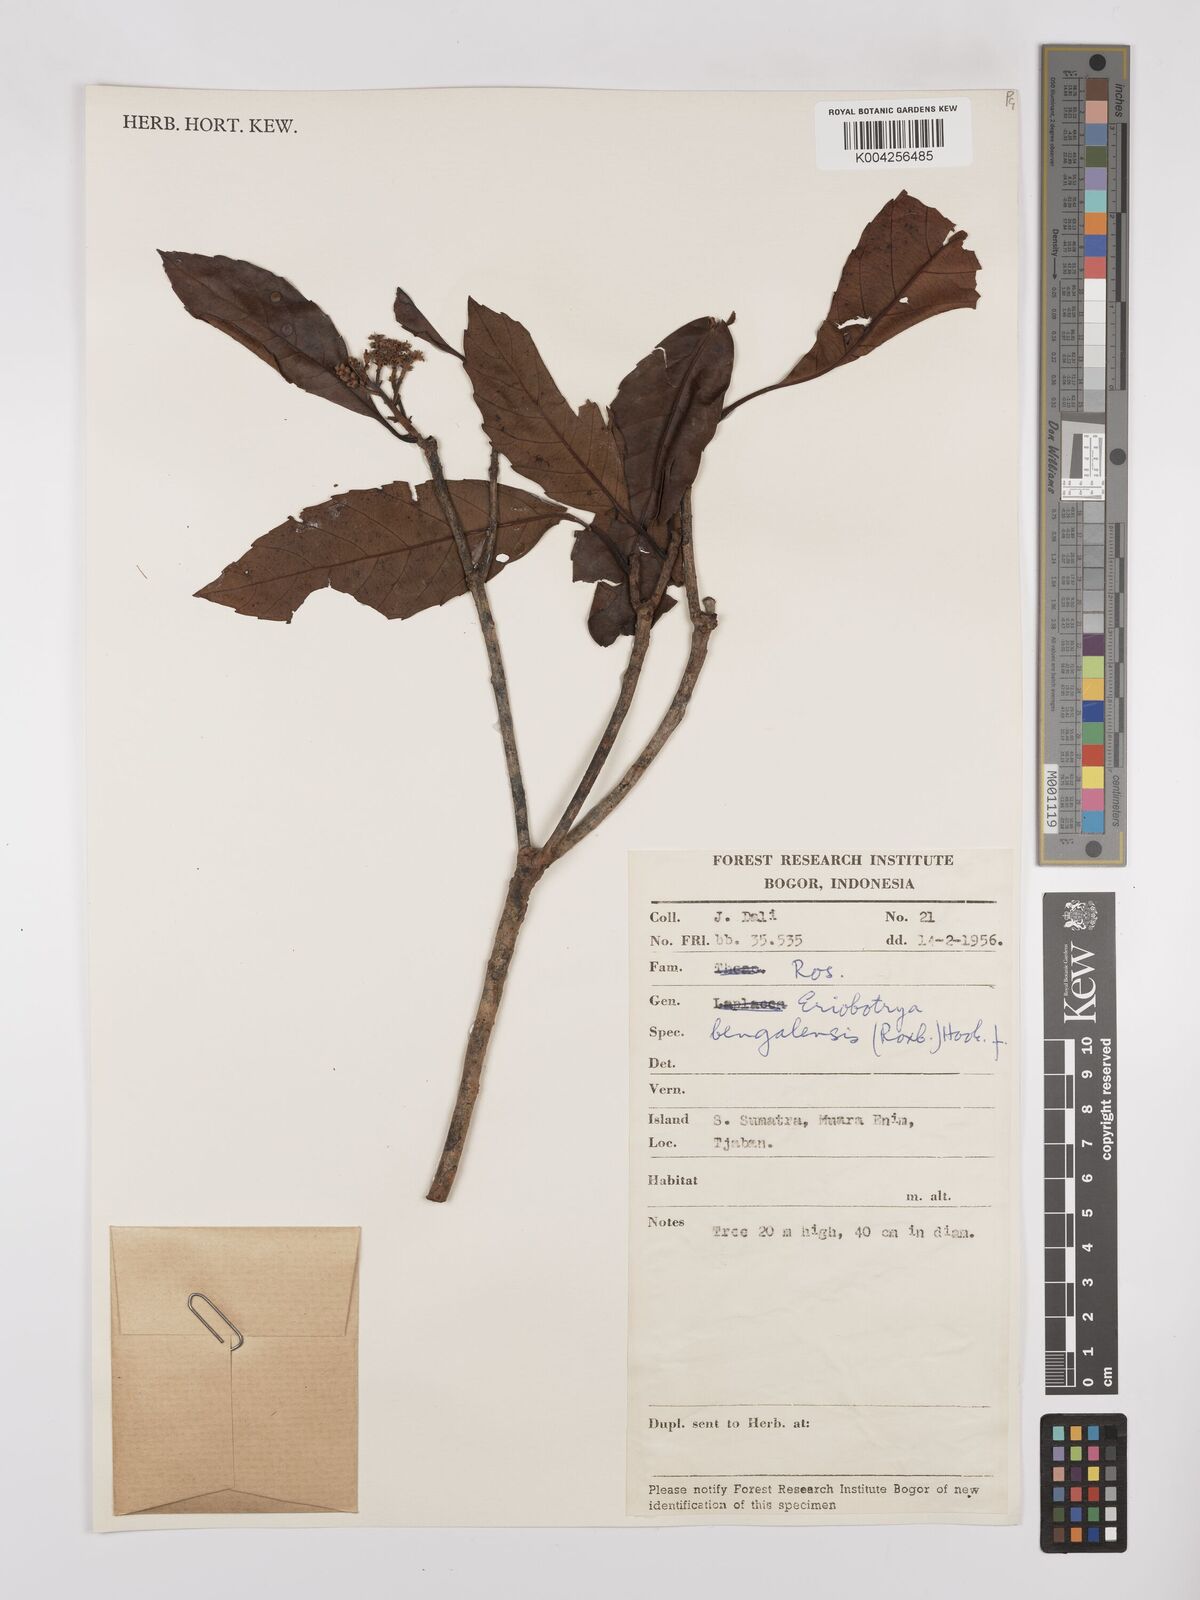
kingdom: Plantae
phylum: Tracheophyta
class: Magnoliopsida
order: Rosales
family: Rosaceae
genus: Rhaphiolepis
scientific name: Rhaphiolepis bengalensis
